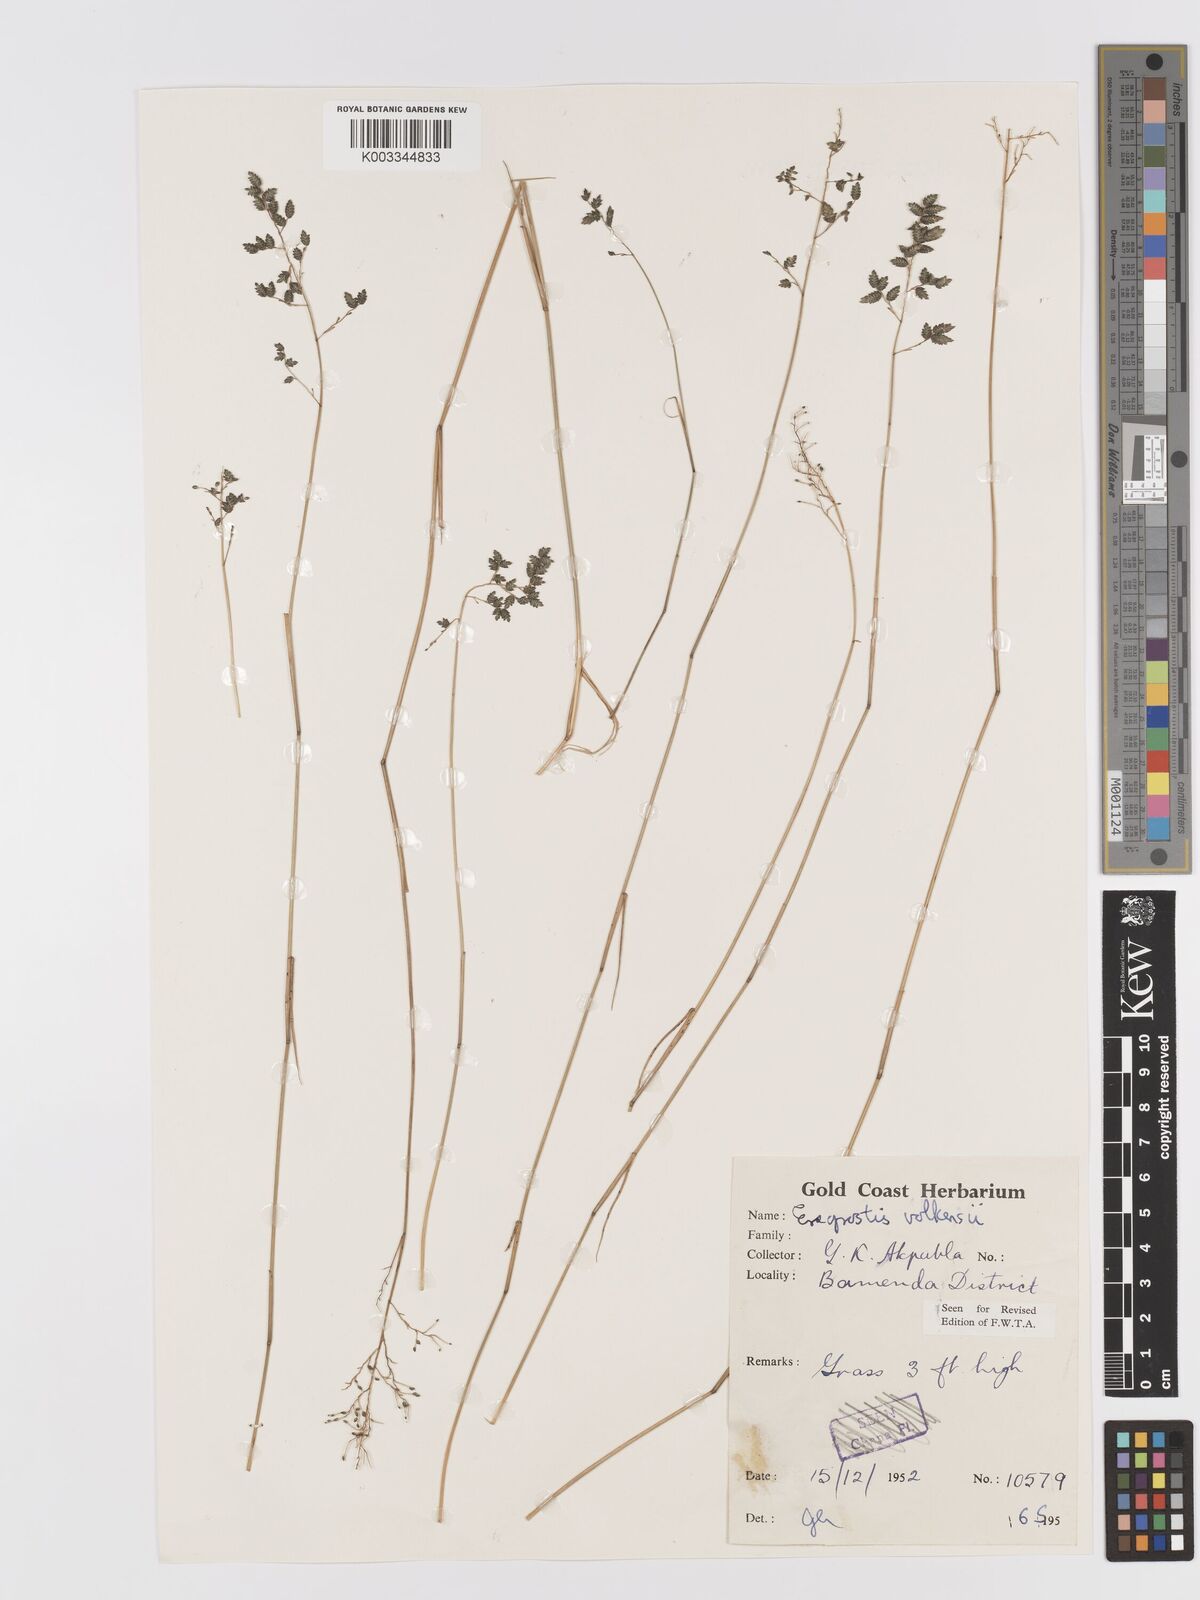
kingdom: Plantae
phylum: Tracheophyta
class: Liliopsida
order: Poales
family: Poaceae
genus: Eragrostis
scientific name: Eragrostis volkensii
